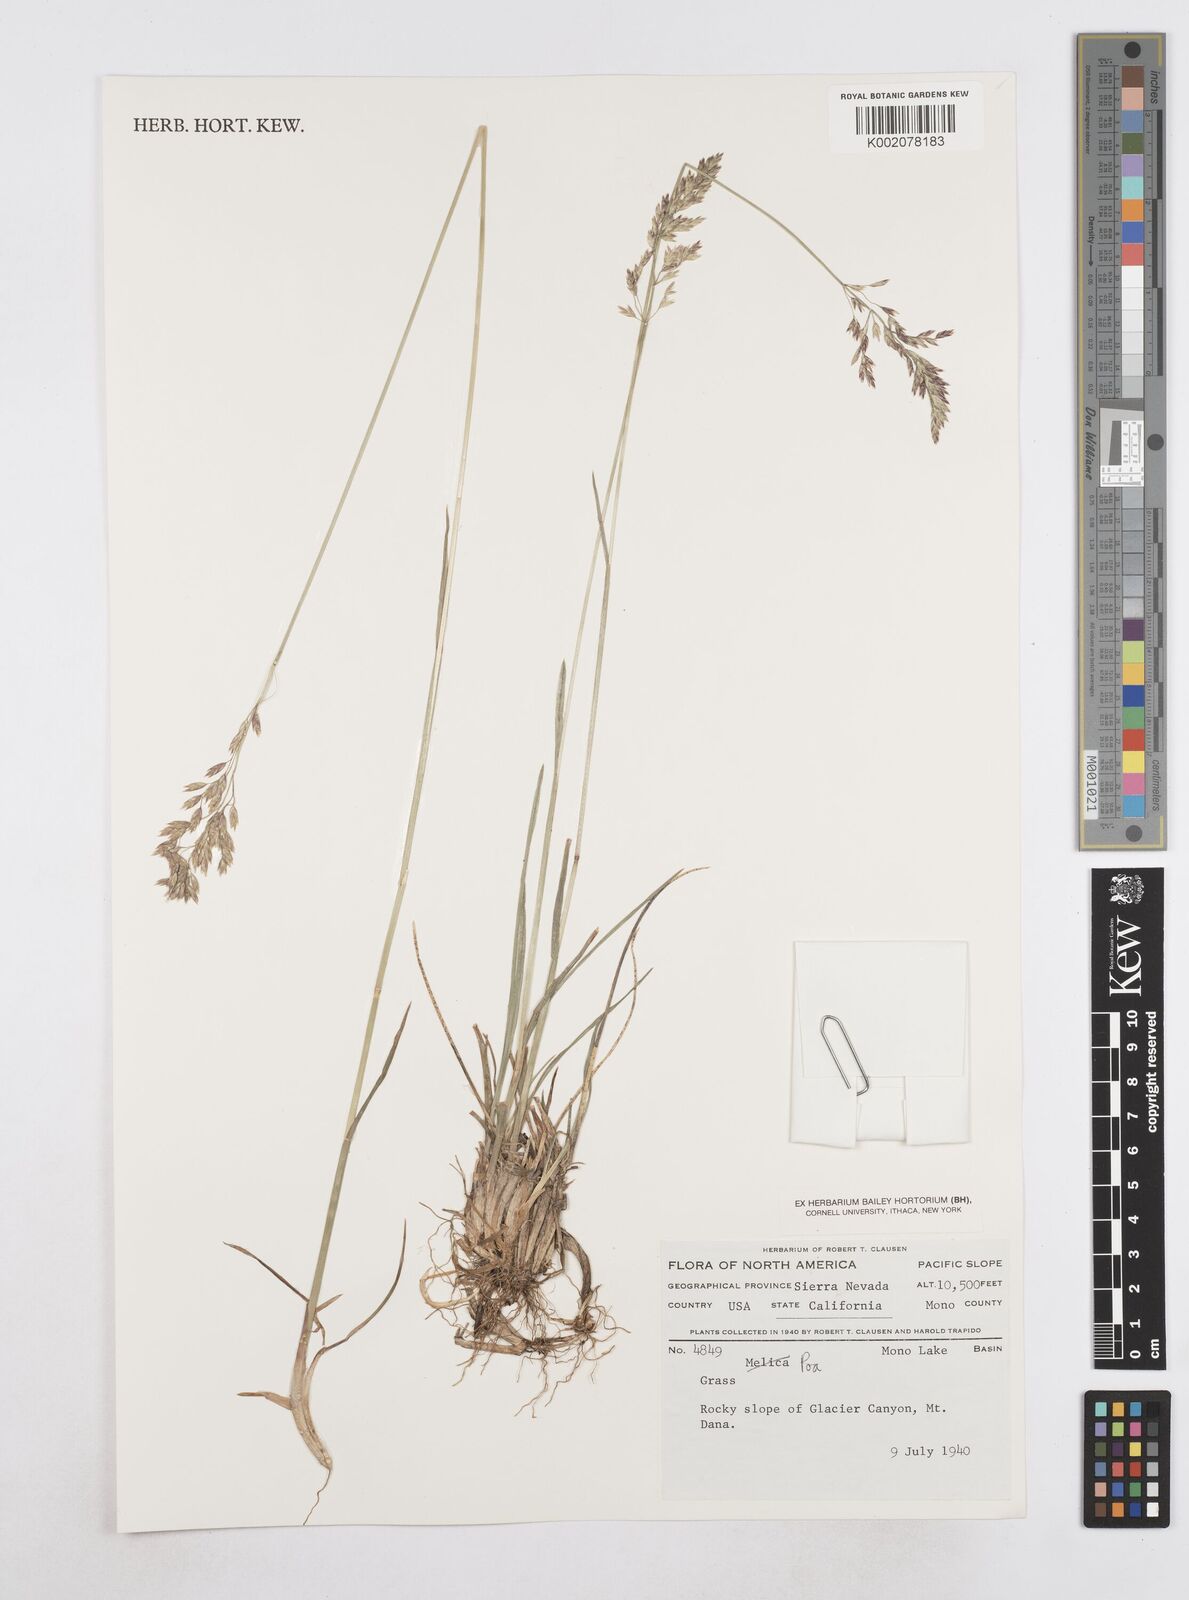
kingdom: Plantae
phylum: Tracheophyta
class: Liliopsida
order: Poales
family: Poaceae
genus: Poa
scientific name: Poa
